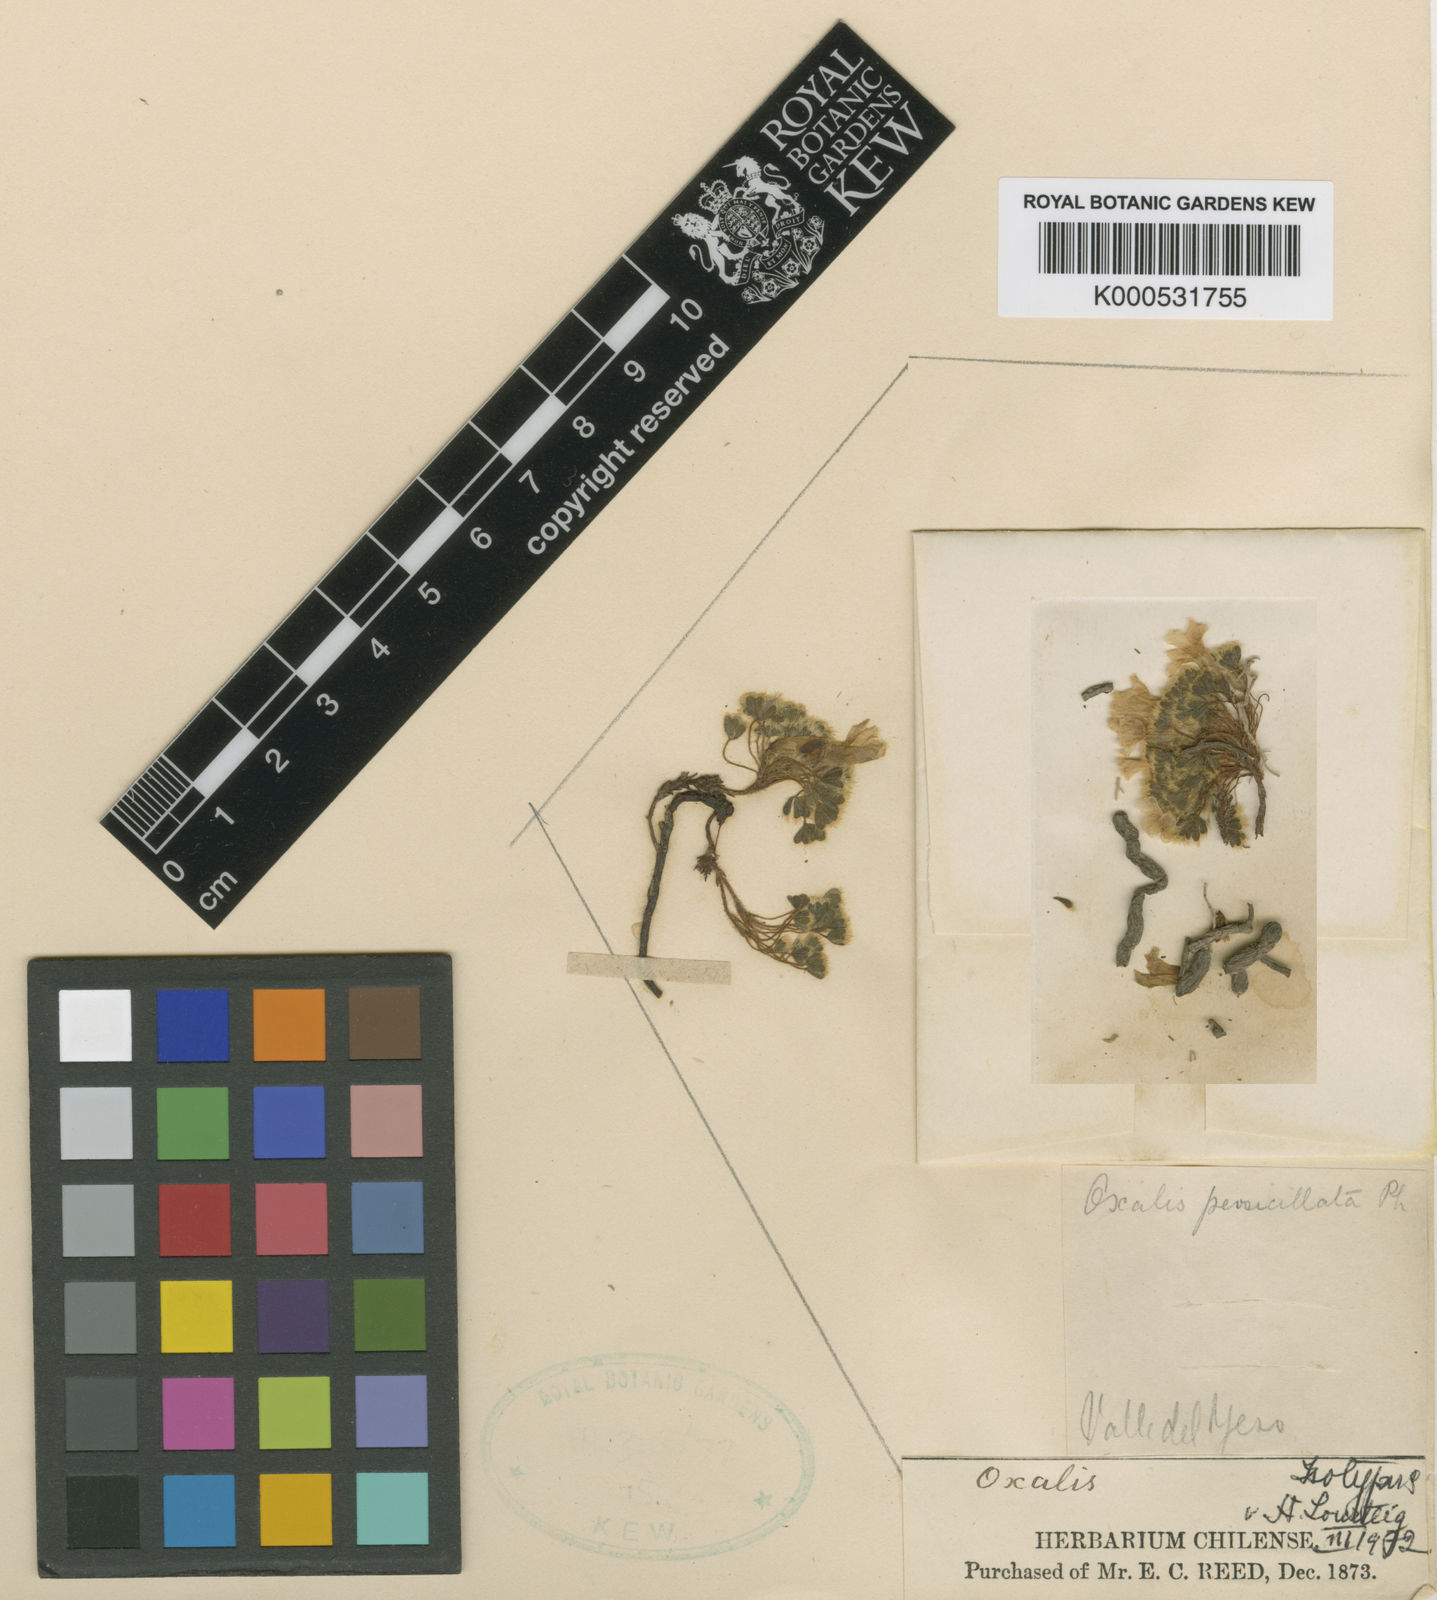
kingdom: Plantae
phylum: Tracheophyta
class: Magnoliopsida
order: Oxalidales
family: Oxalidaceae
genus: Oxalis
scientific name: Oxalis penicillata
